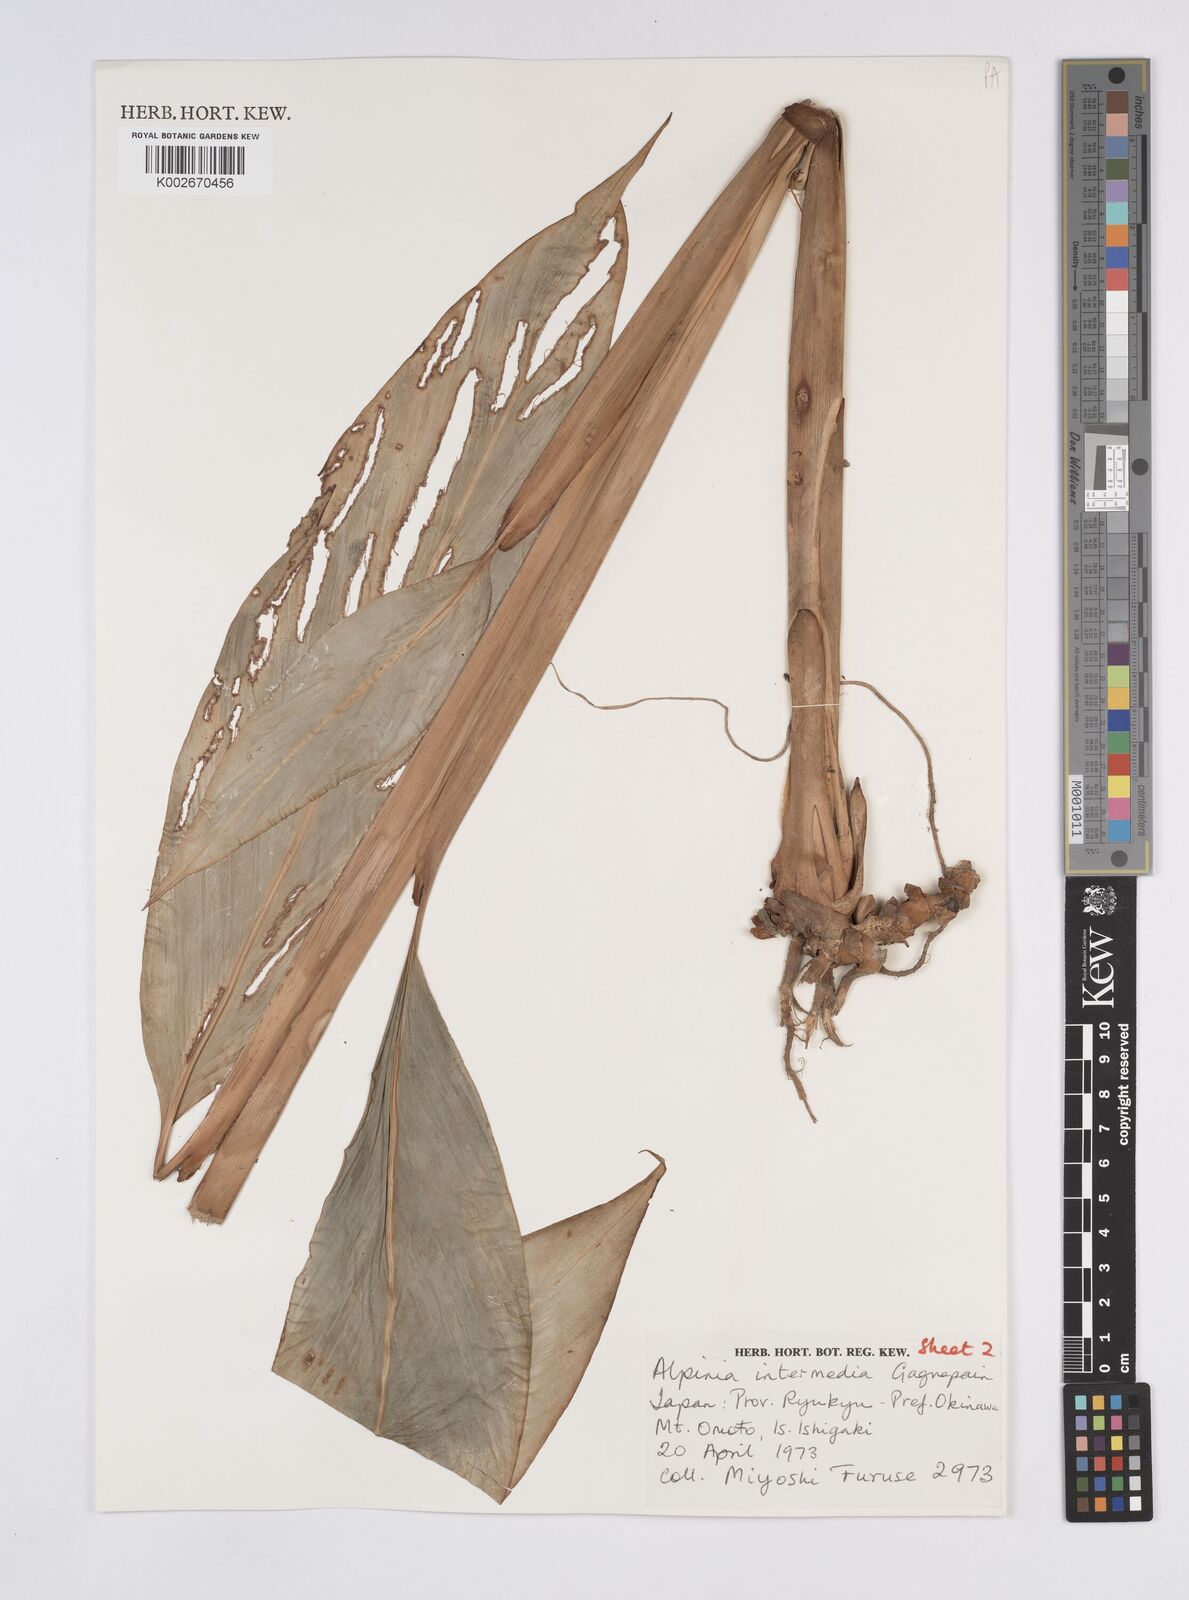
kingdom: Plantae
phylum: Tracheophyta
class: Liliopsida
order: Zingiberales
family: Zingiberaceae
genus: Alpinia
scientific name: Alpinia intermedia
